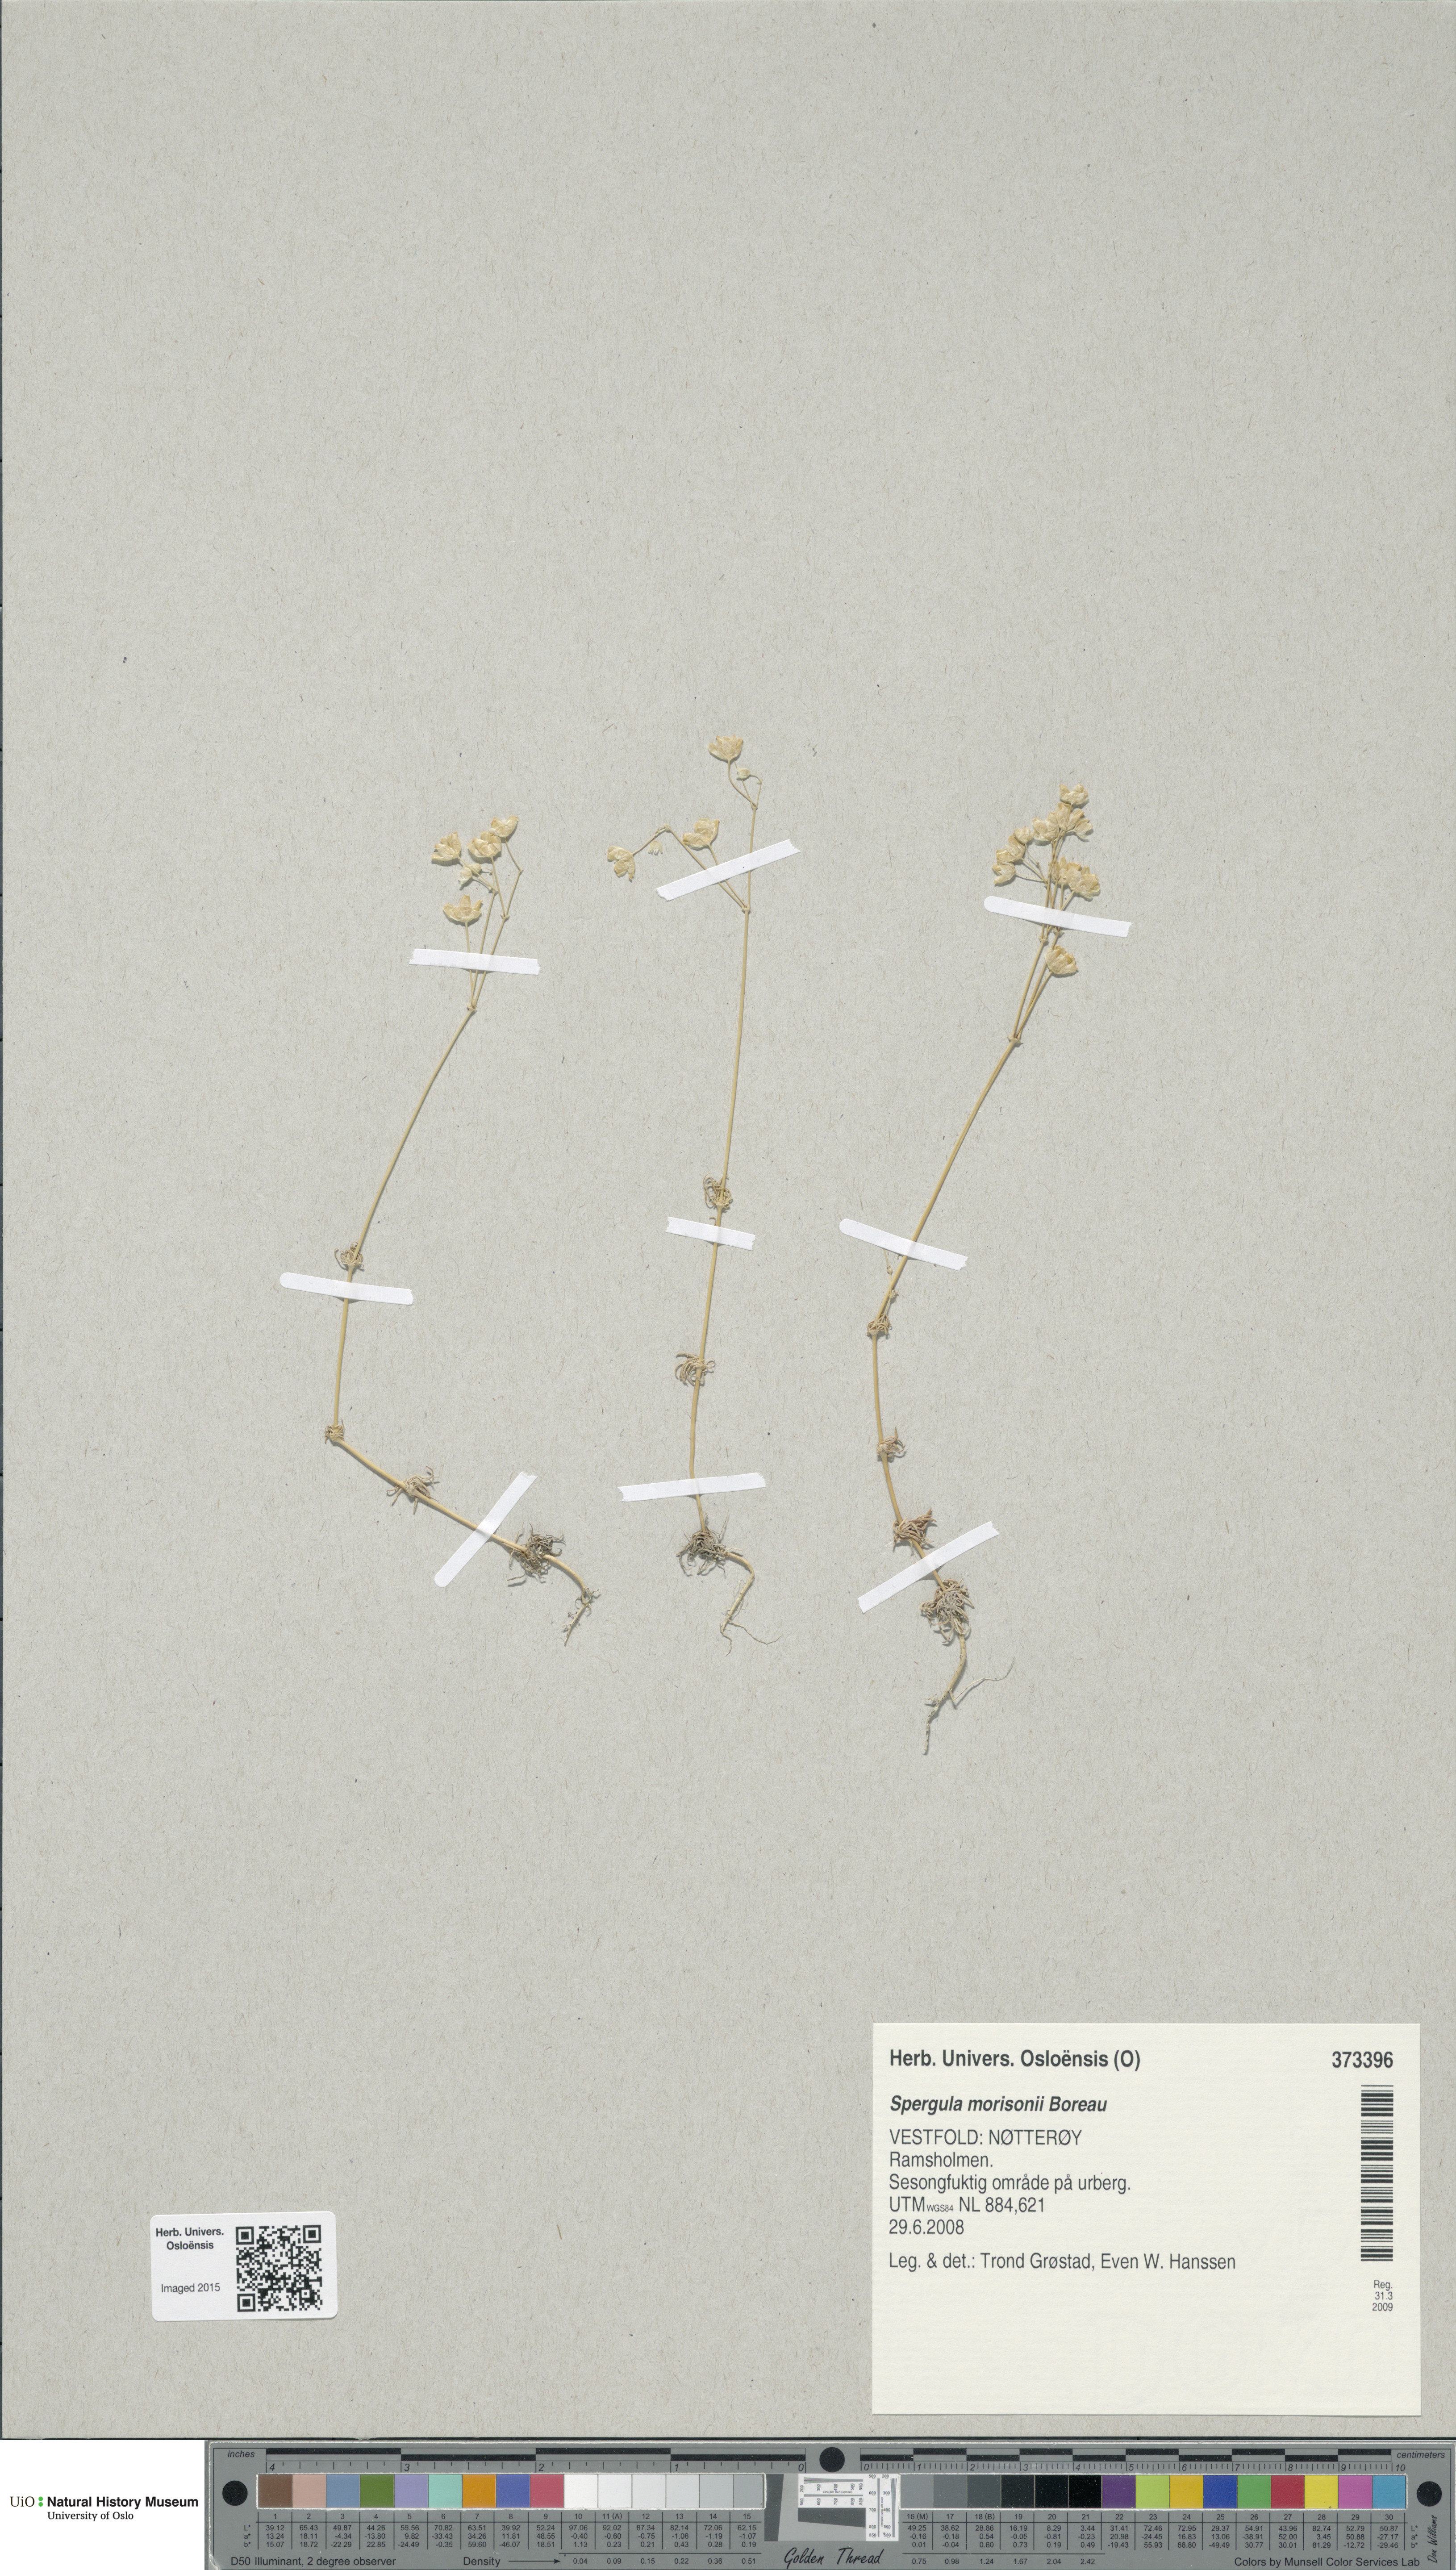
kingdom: Plantae
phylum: Tracheophyta
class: Magnoliopsida
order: Caryophyllales
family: Caryophyllaceae
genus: Spergula
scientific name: Spergula morisonii
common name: Pearlwort spurrey
